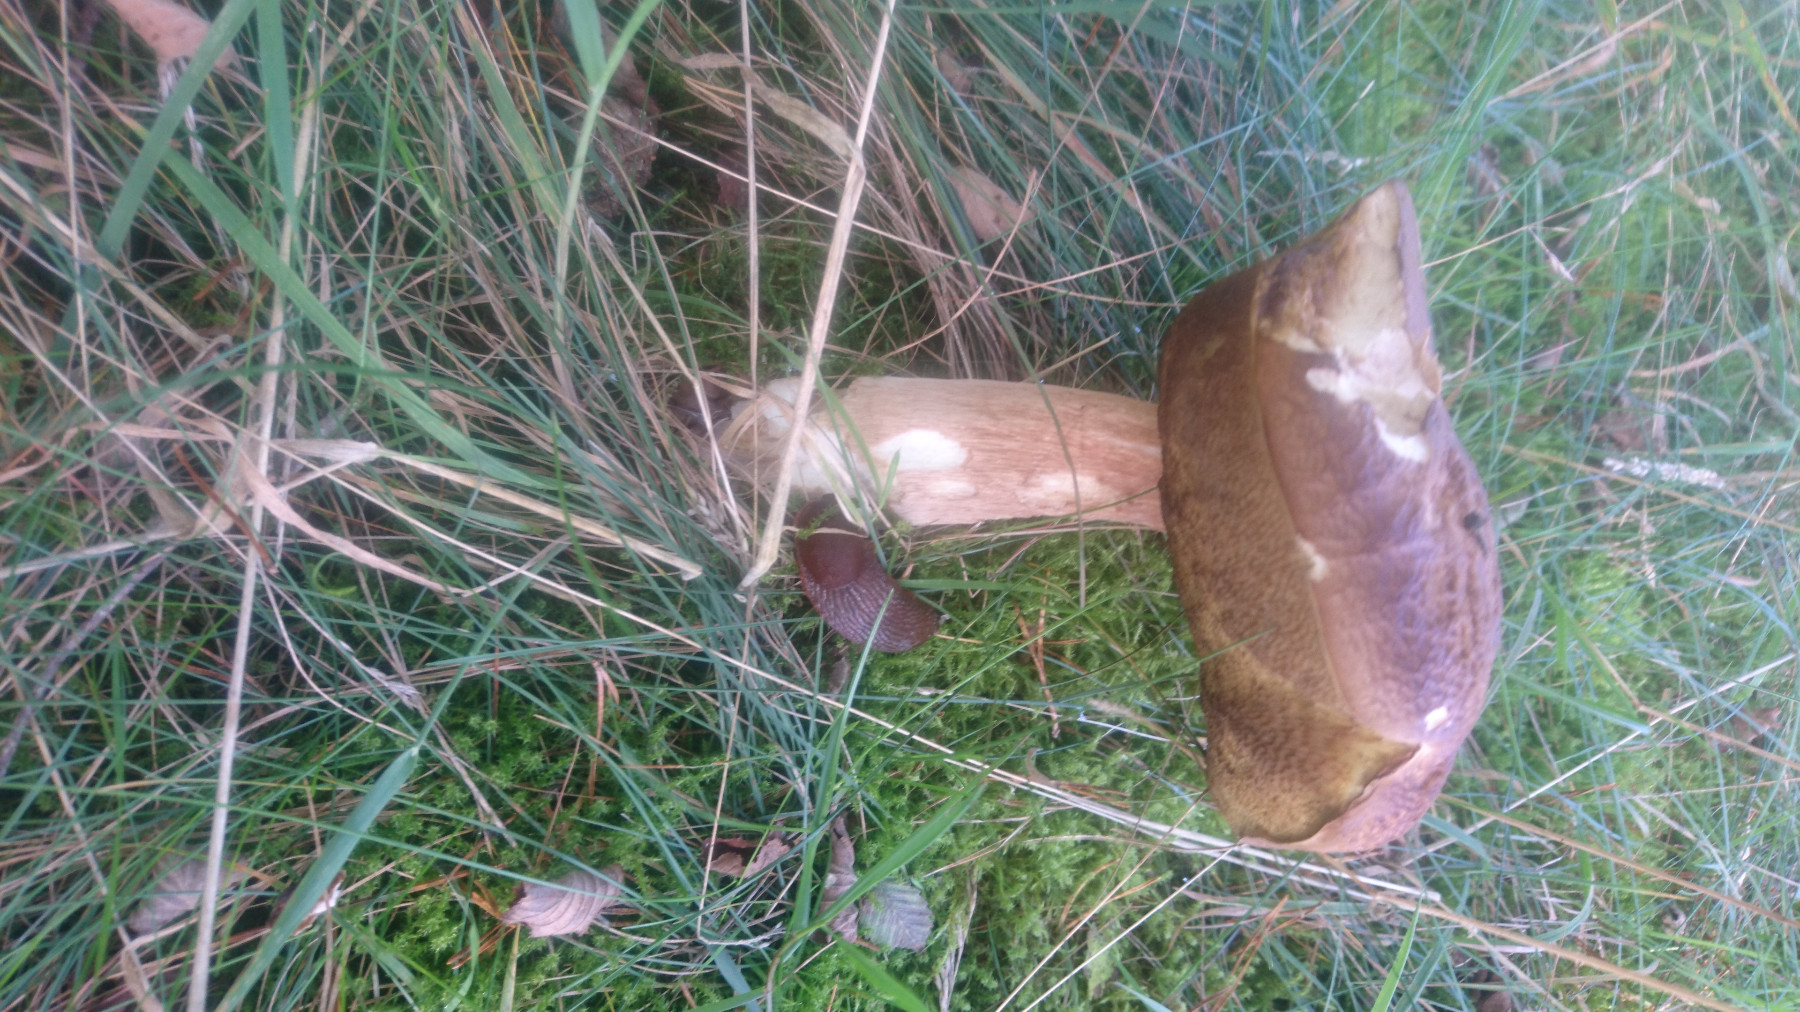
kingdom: Fungi
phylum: Basidiomycota
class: Agaricomycetes
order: Boletales
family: Boletaceae
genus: Boletus
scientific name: Boletus edulis
